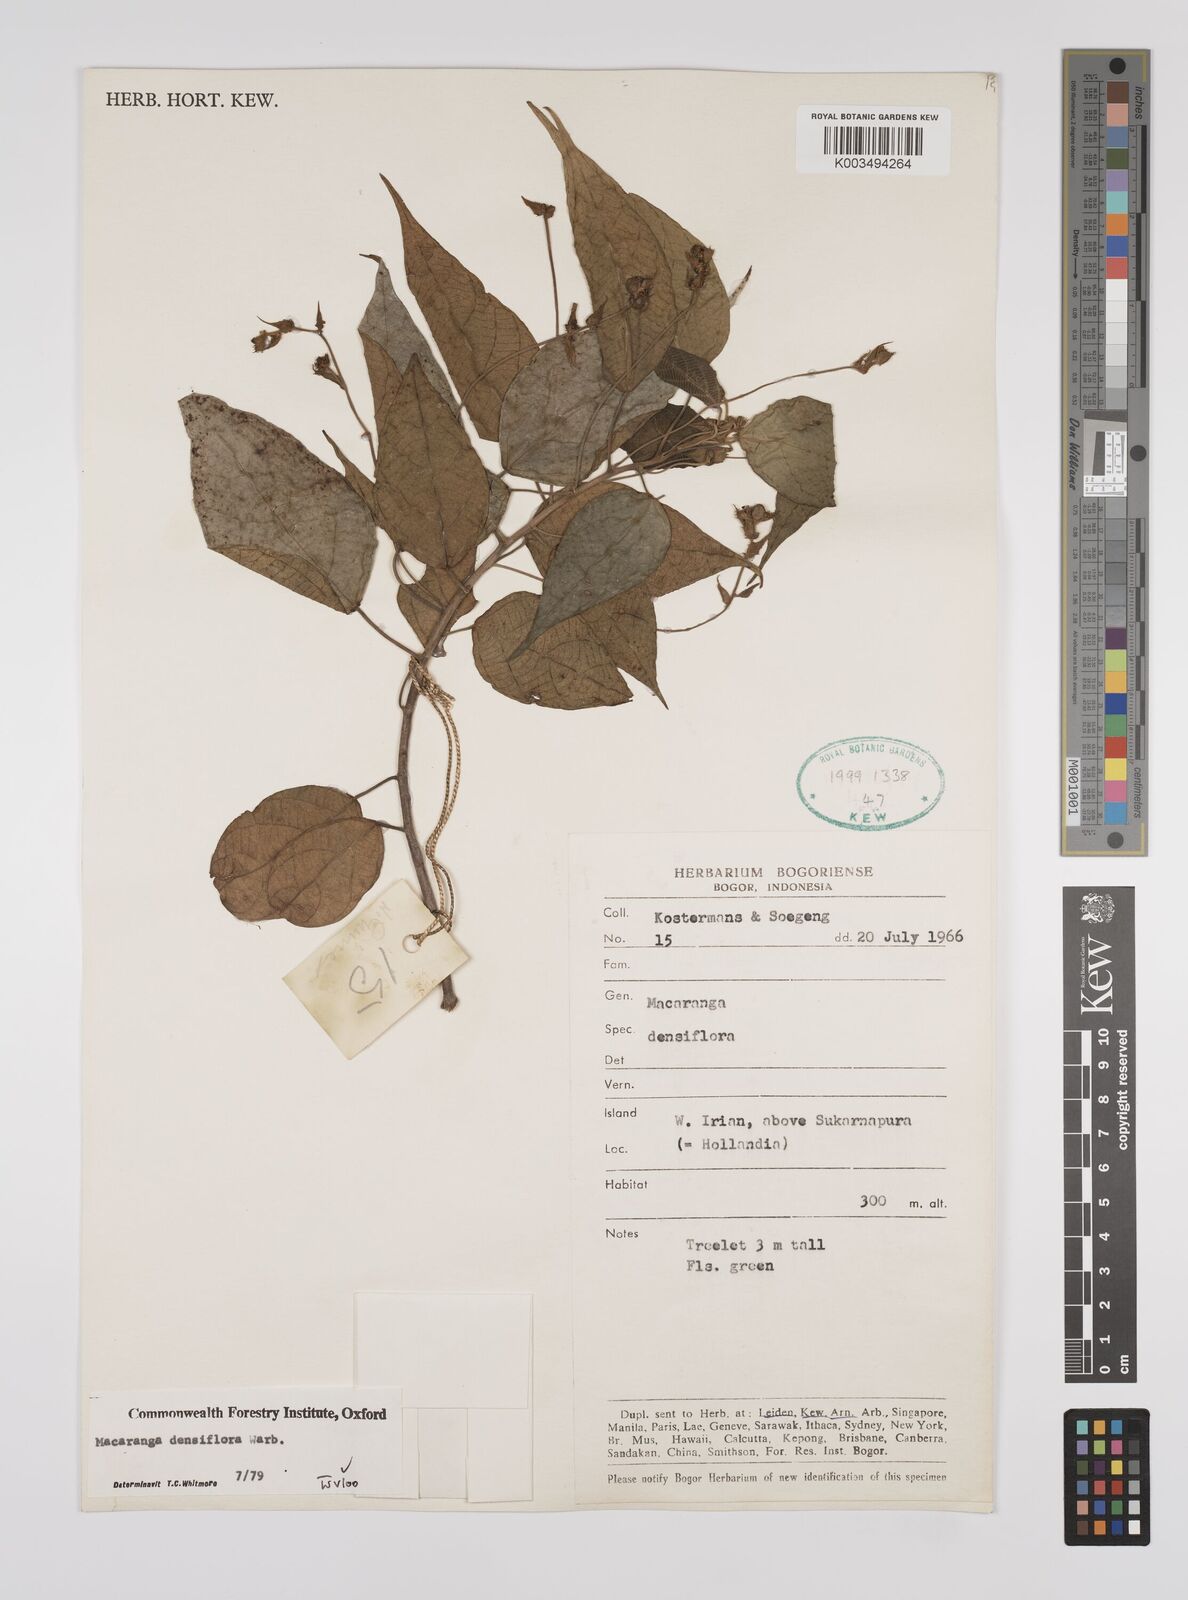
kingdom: Plantae
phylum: Tracheophyta
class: Magnoliopsida
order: Malpighiales
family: Euphorbiaceae
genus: Macaranga
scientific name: Macaranga densiflora
